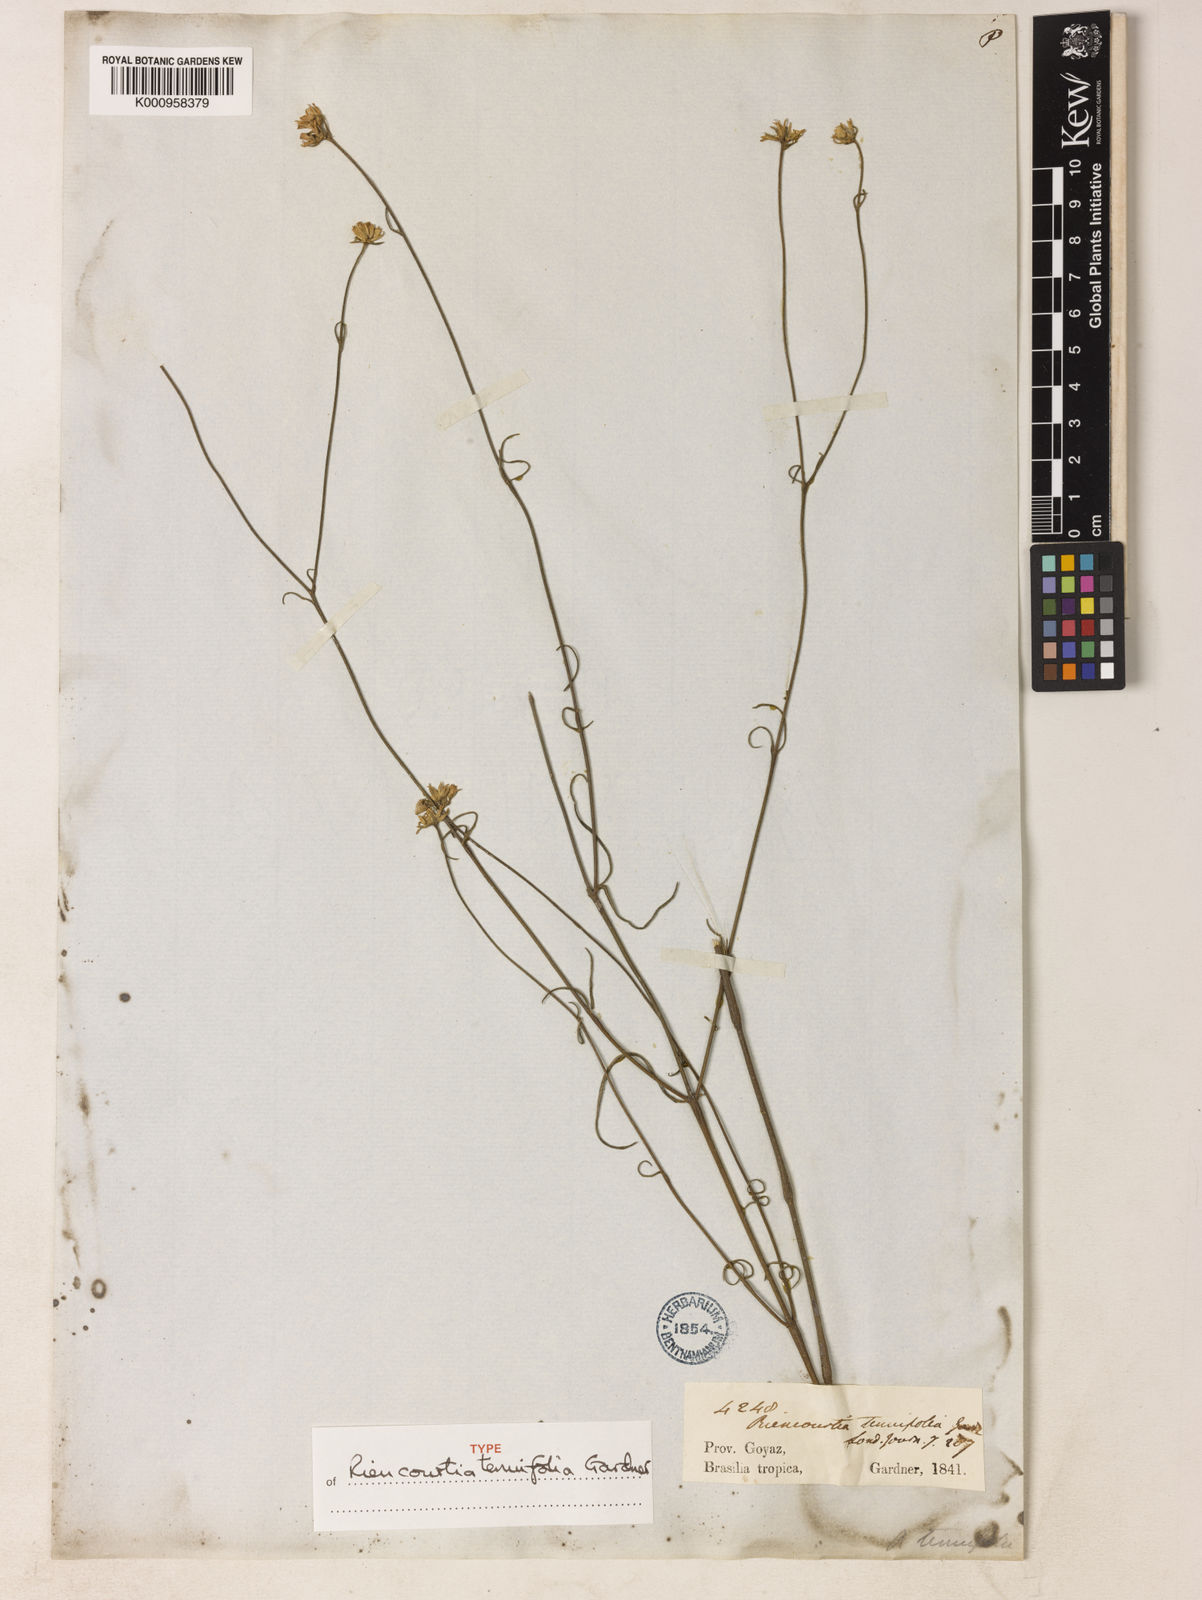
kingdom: Plantae
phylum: Tracheophyta
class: Magnoliopsida
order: Asterales
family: Asteraceae
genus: Riencourtia
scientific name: Riencourtia tenuifolia
